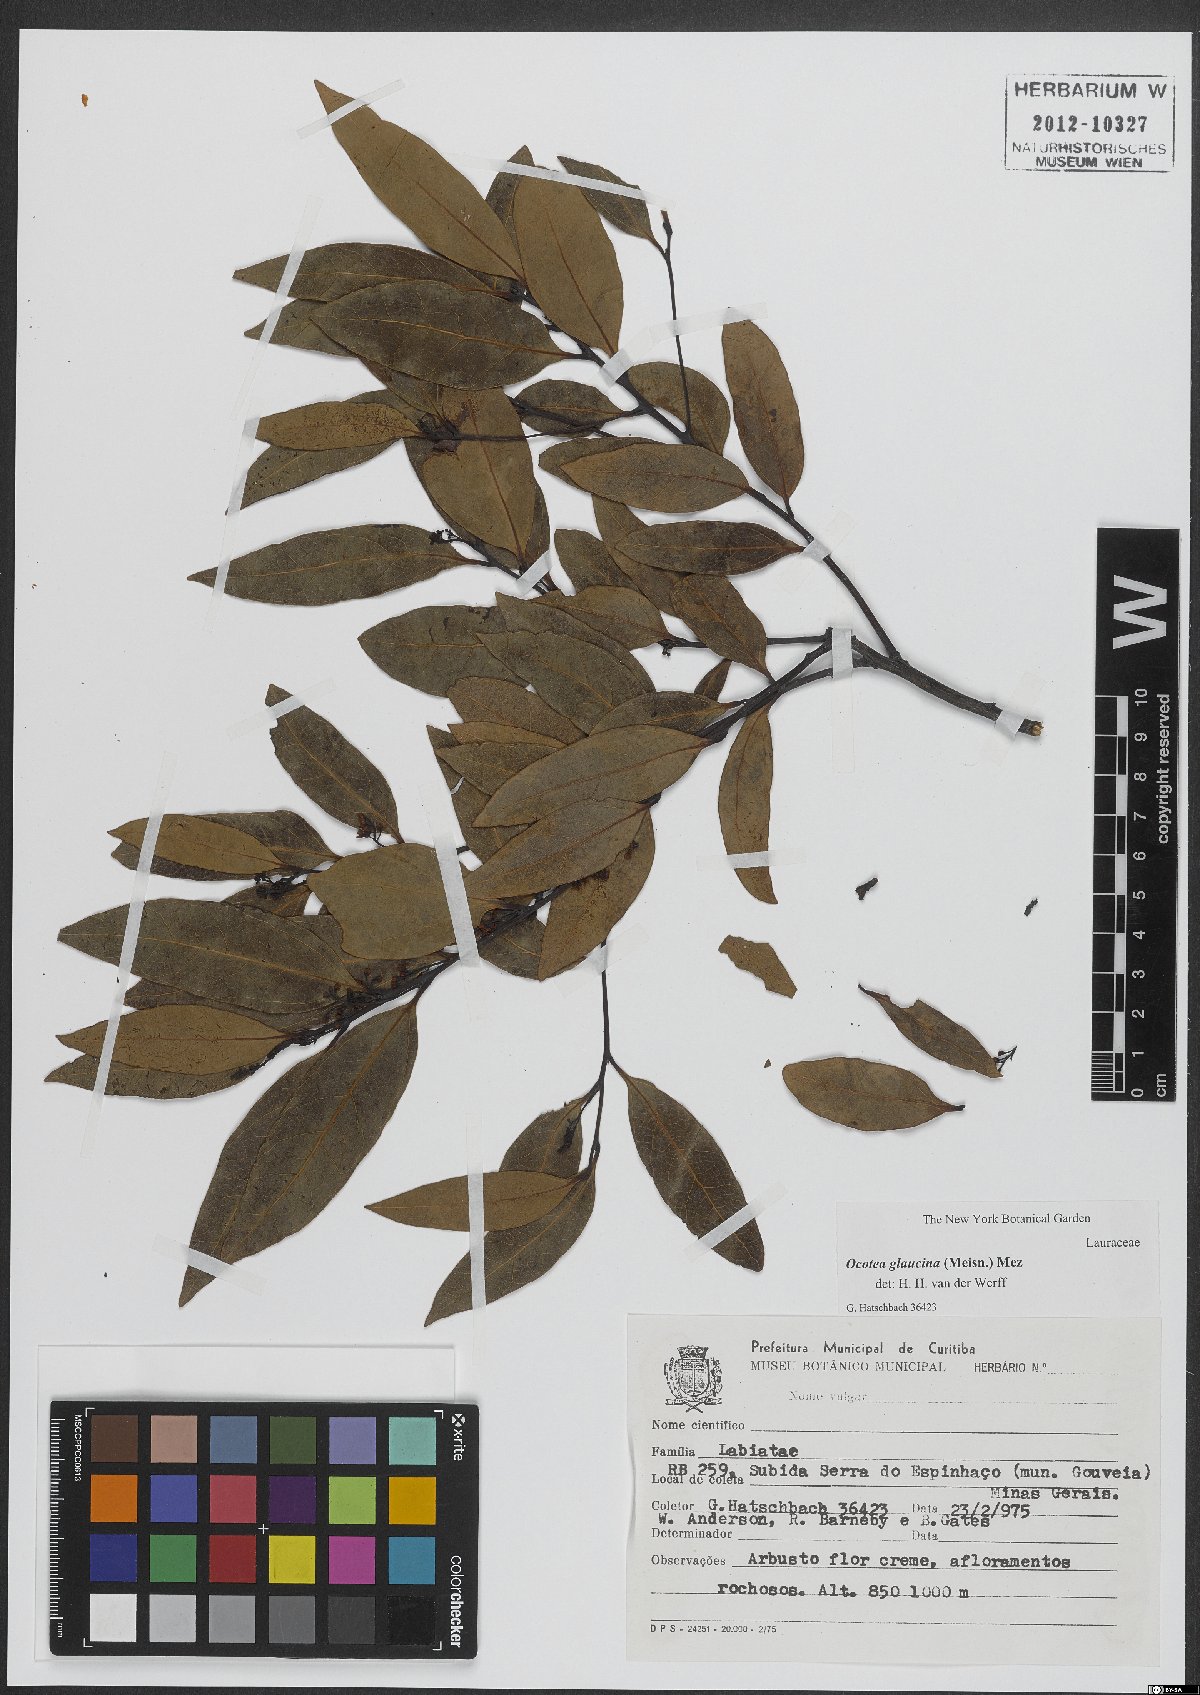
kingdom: Plantae
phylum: Tracheophyta
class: Magnoliopsida
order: Laurales
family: Lauraceae
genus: Mespilodaphne
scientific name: Mespilodaphne notata
